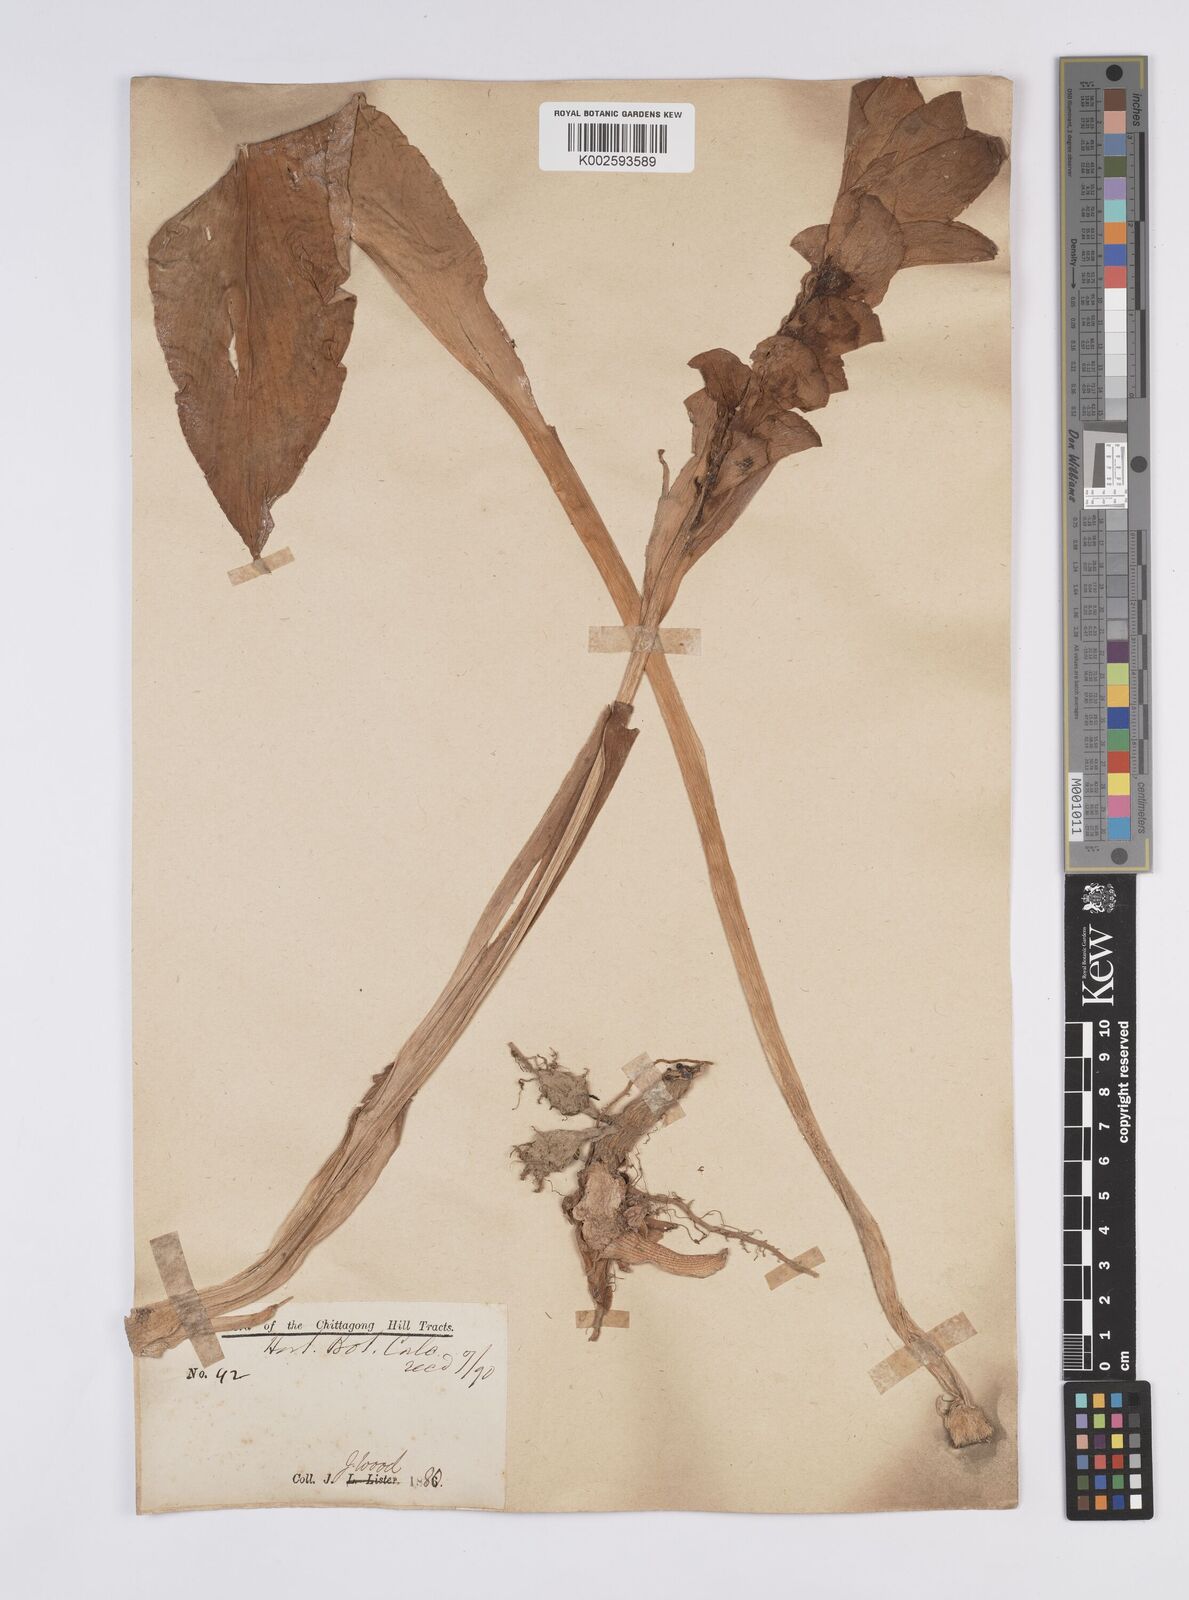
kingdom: Plantae
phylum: Tracheophyta
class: Liliopsida
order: Zingiberales
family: Zingiberaceae
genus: Curcuma
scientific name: Curcuma aromatica
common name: Wild turmeric
